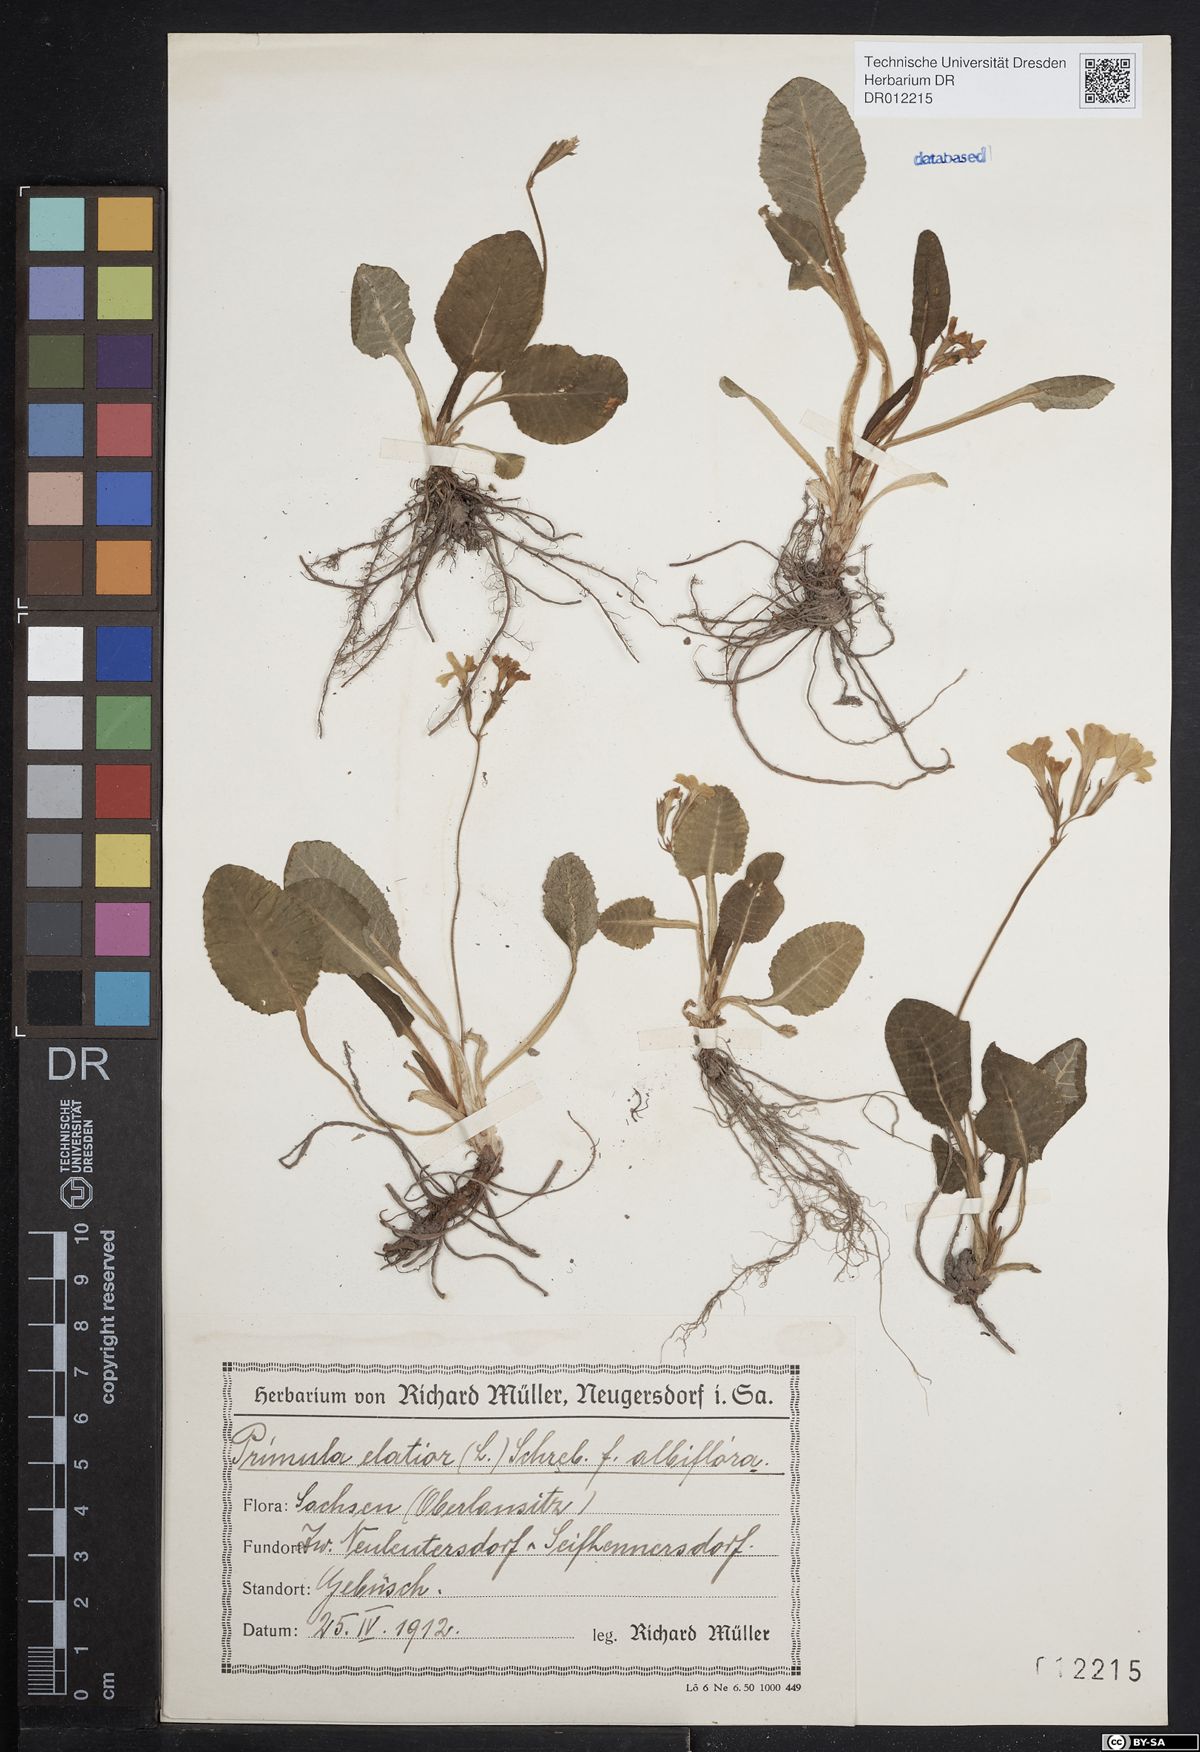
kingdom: Plantae
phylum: Tracheophyta
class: Magnoliopsida
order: Ericales
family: Primulaceae
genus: Primula
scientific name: Primula elatior
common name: Oxlip
